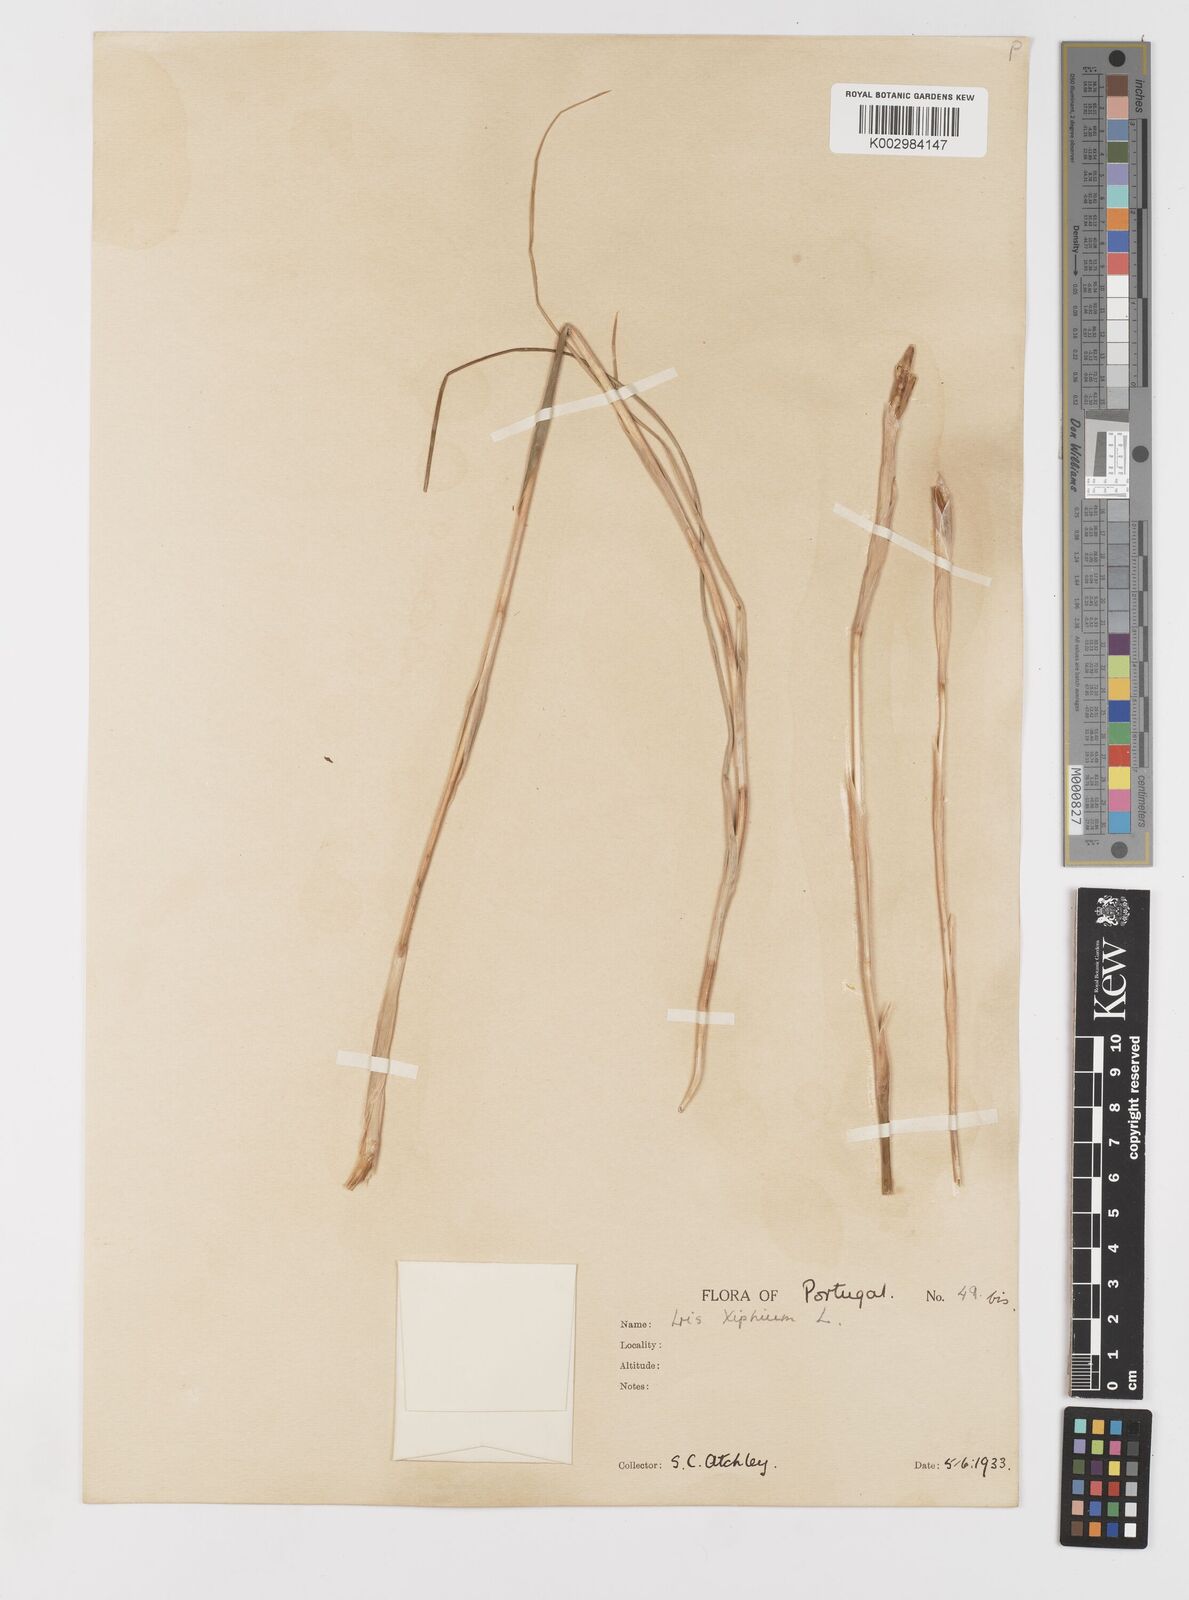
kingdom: Plantae
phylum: Tracheophyta
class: Liliopsida
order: Asparagales
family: Iridaceae
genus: Iris
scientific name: Iris xiphium
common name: Spanish iris
